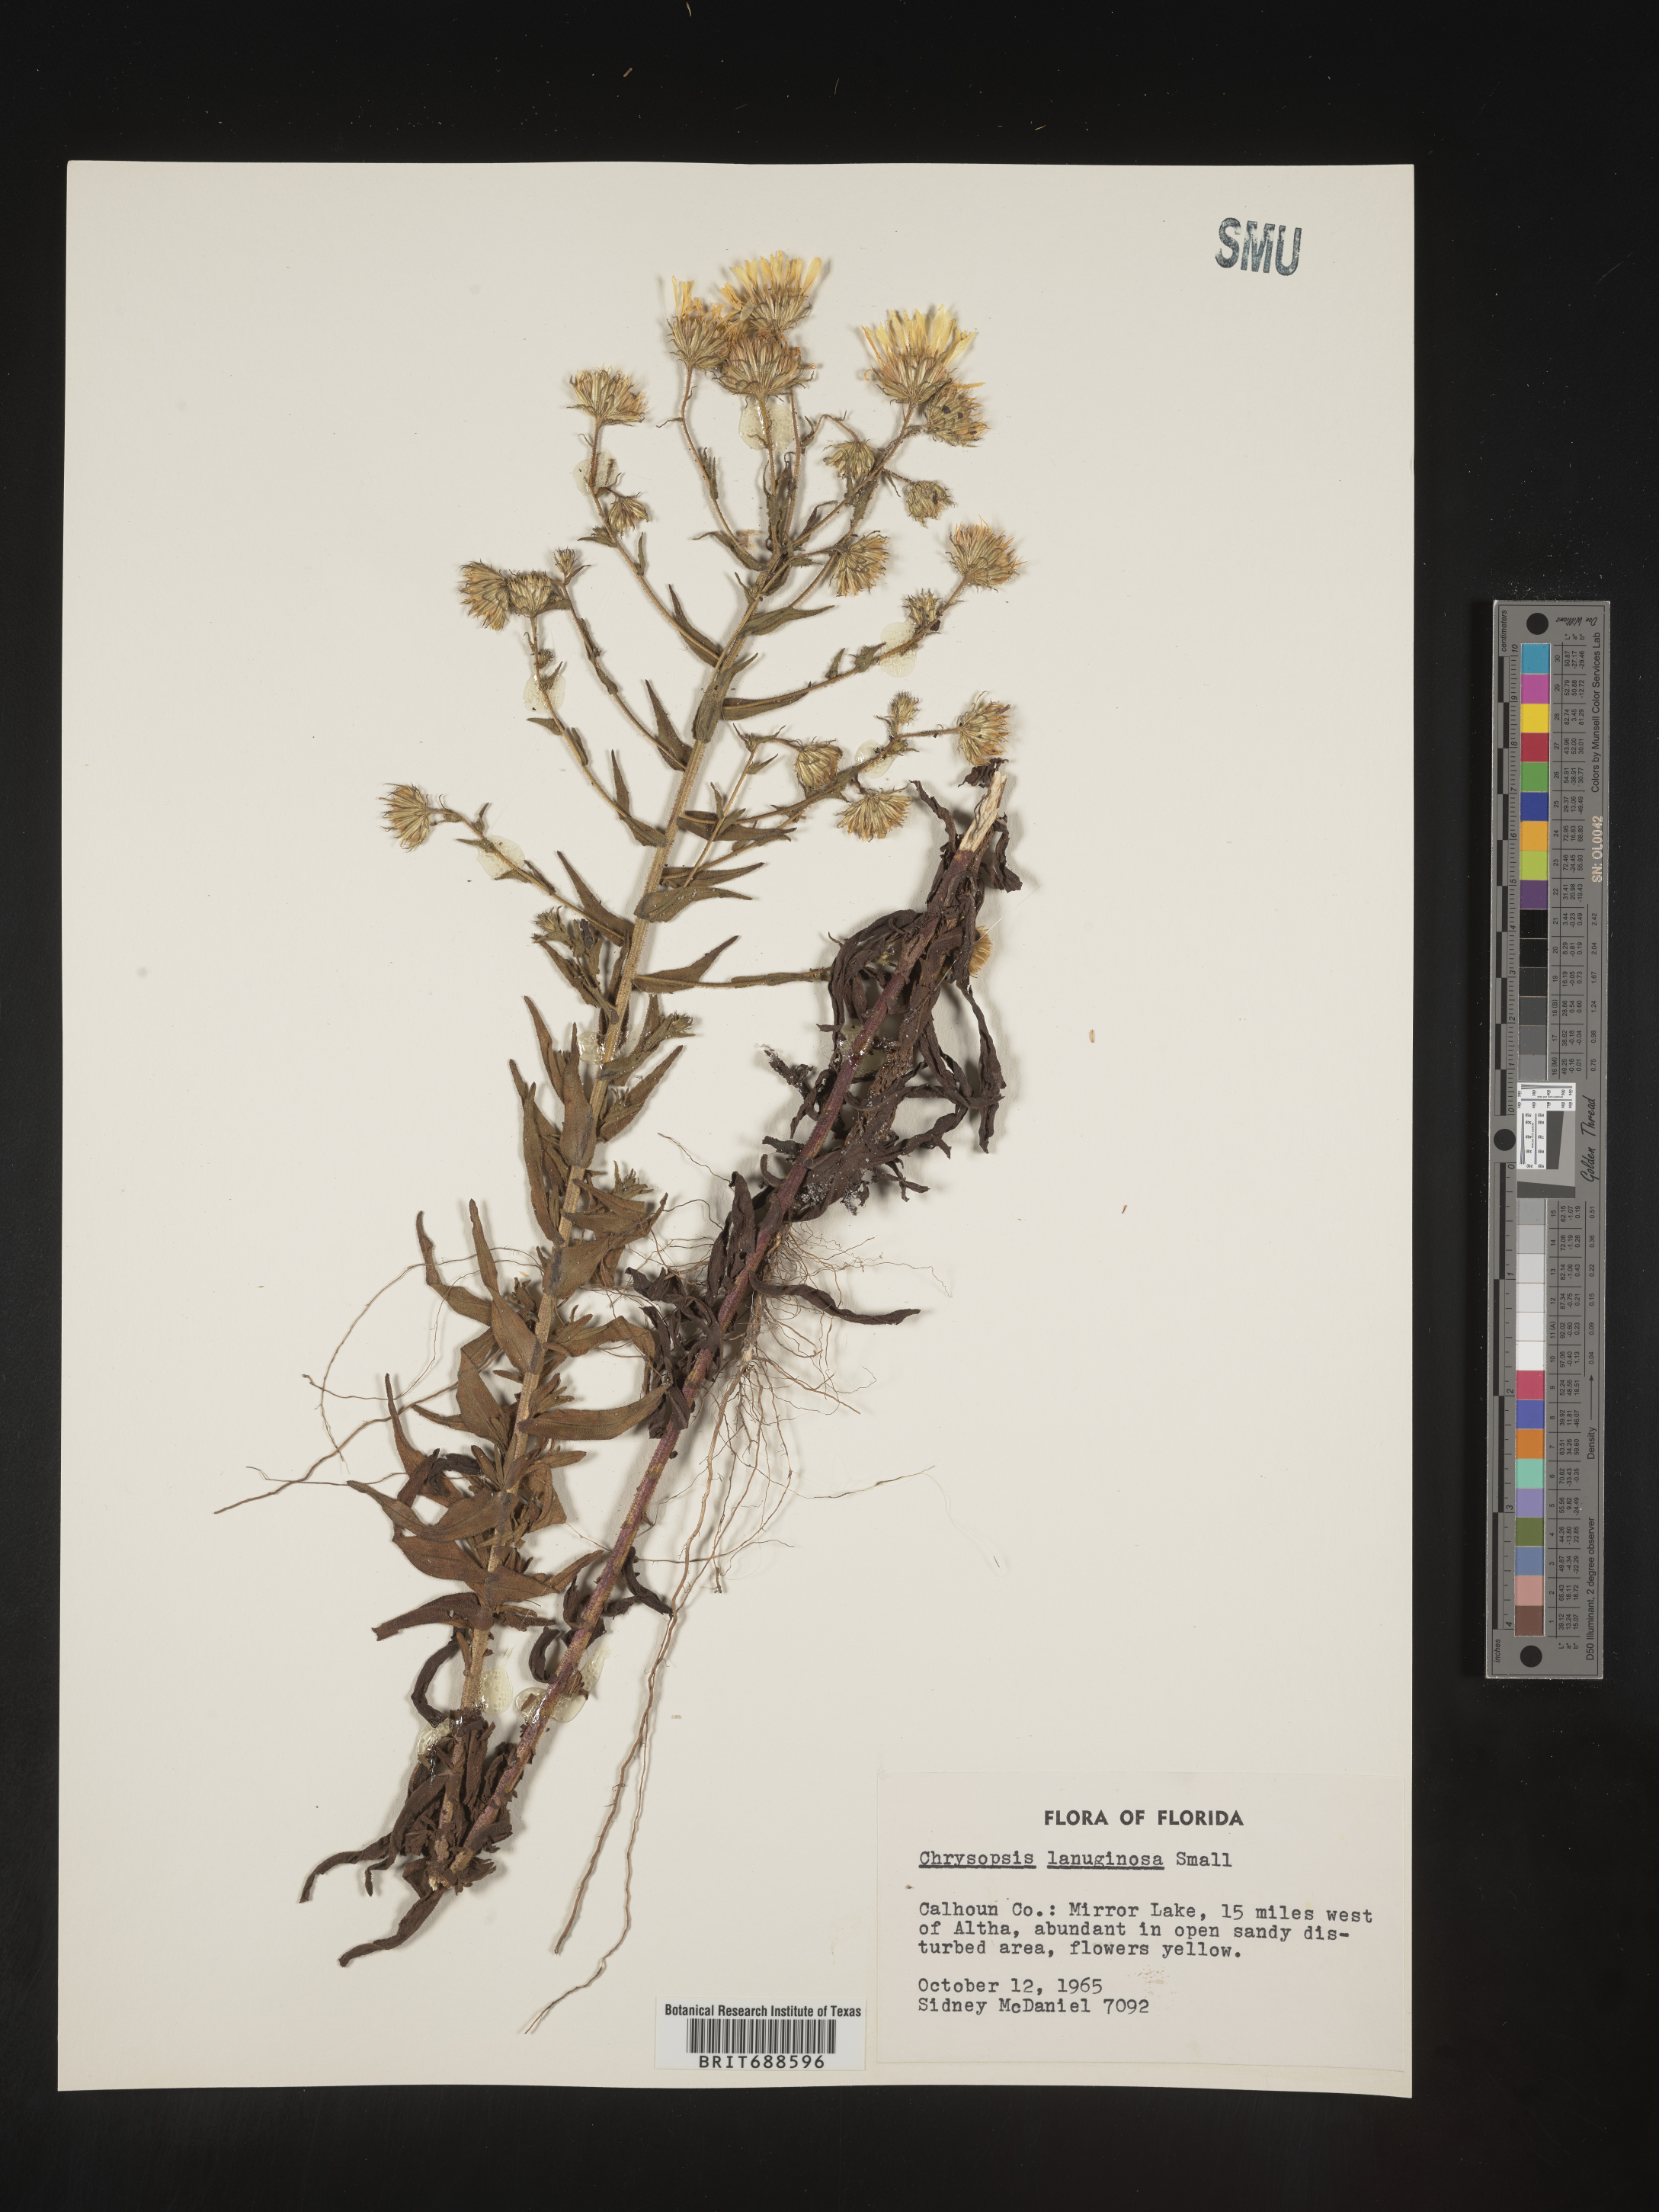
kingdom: Plantae
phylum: Tracheophyta
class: Magnoliopsida
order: Asterales
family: Asteraceae
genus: Chrysopsis
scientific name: Chrysopsis lanuginosa
